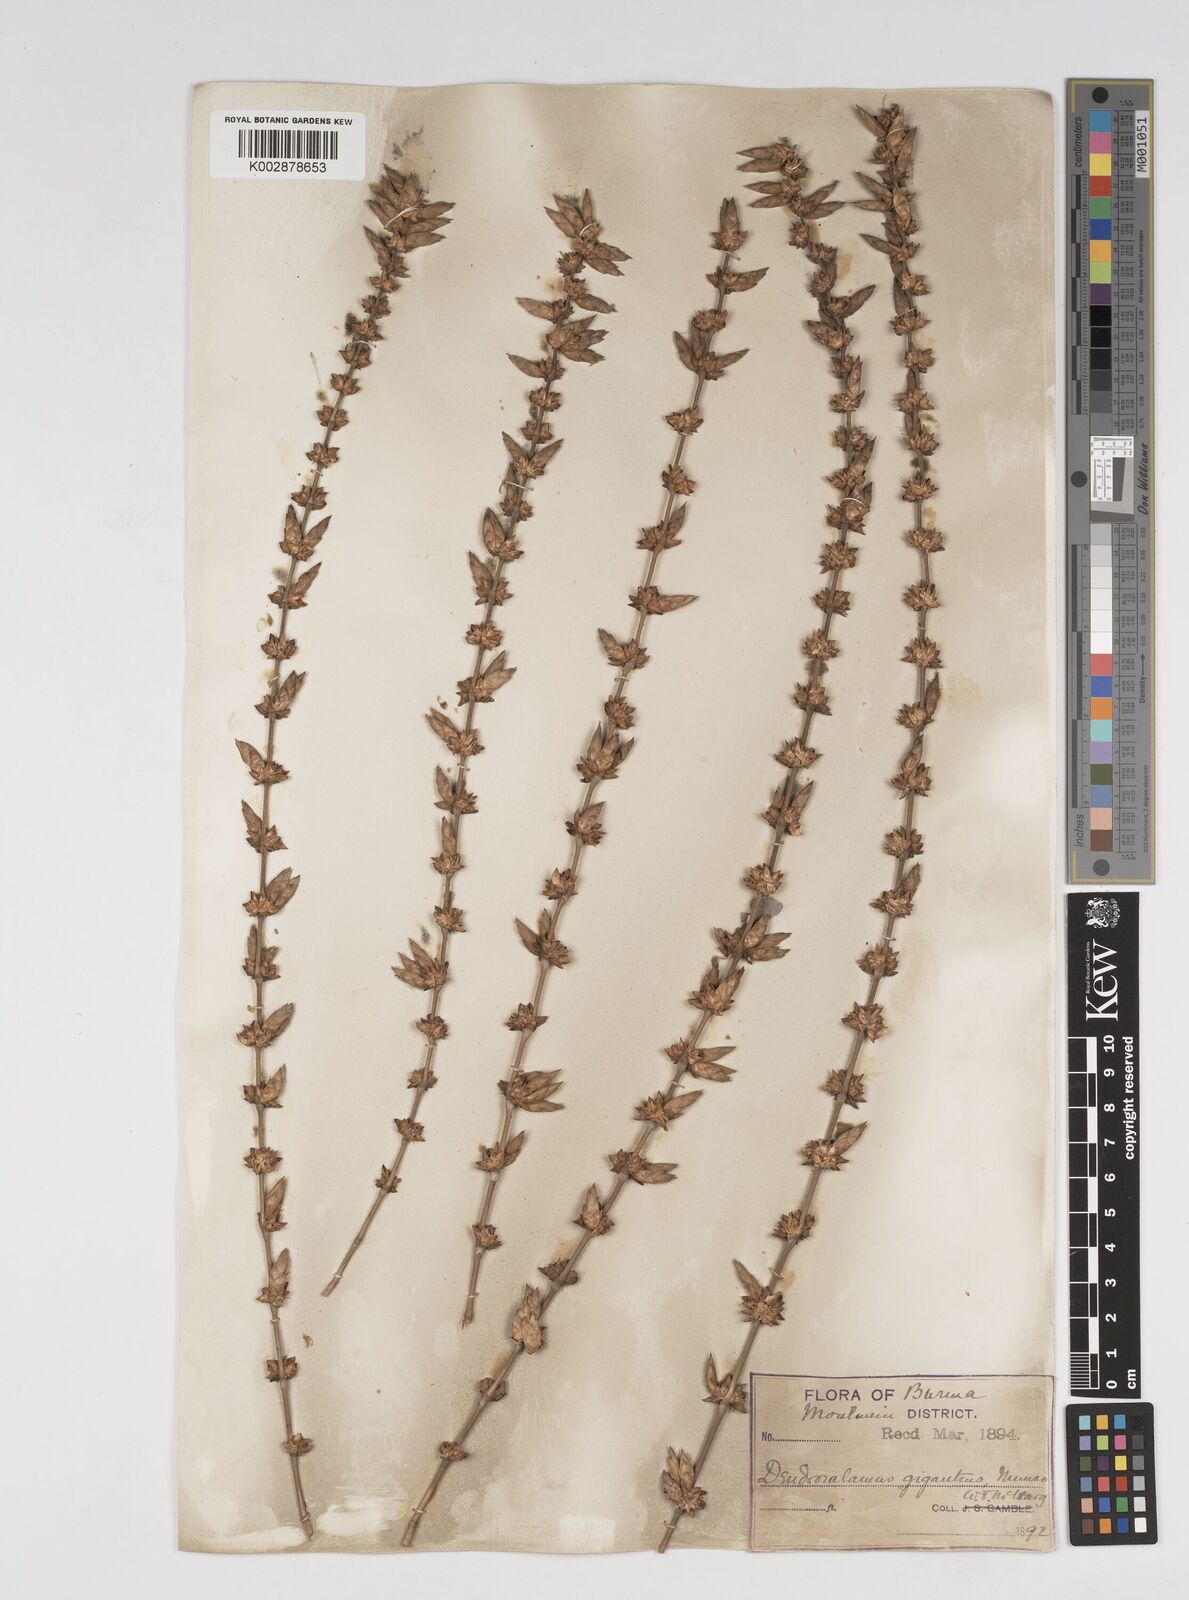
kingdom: Plantae
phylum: Tracheophyta
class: Liliopsida
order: Poales
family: Poaceae
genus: Dendrocalamus
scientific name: Dendrocalamus giganteus
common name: Giant bamboo
